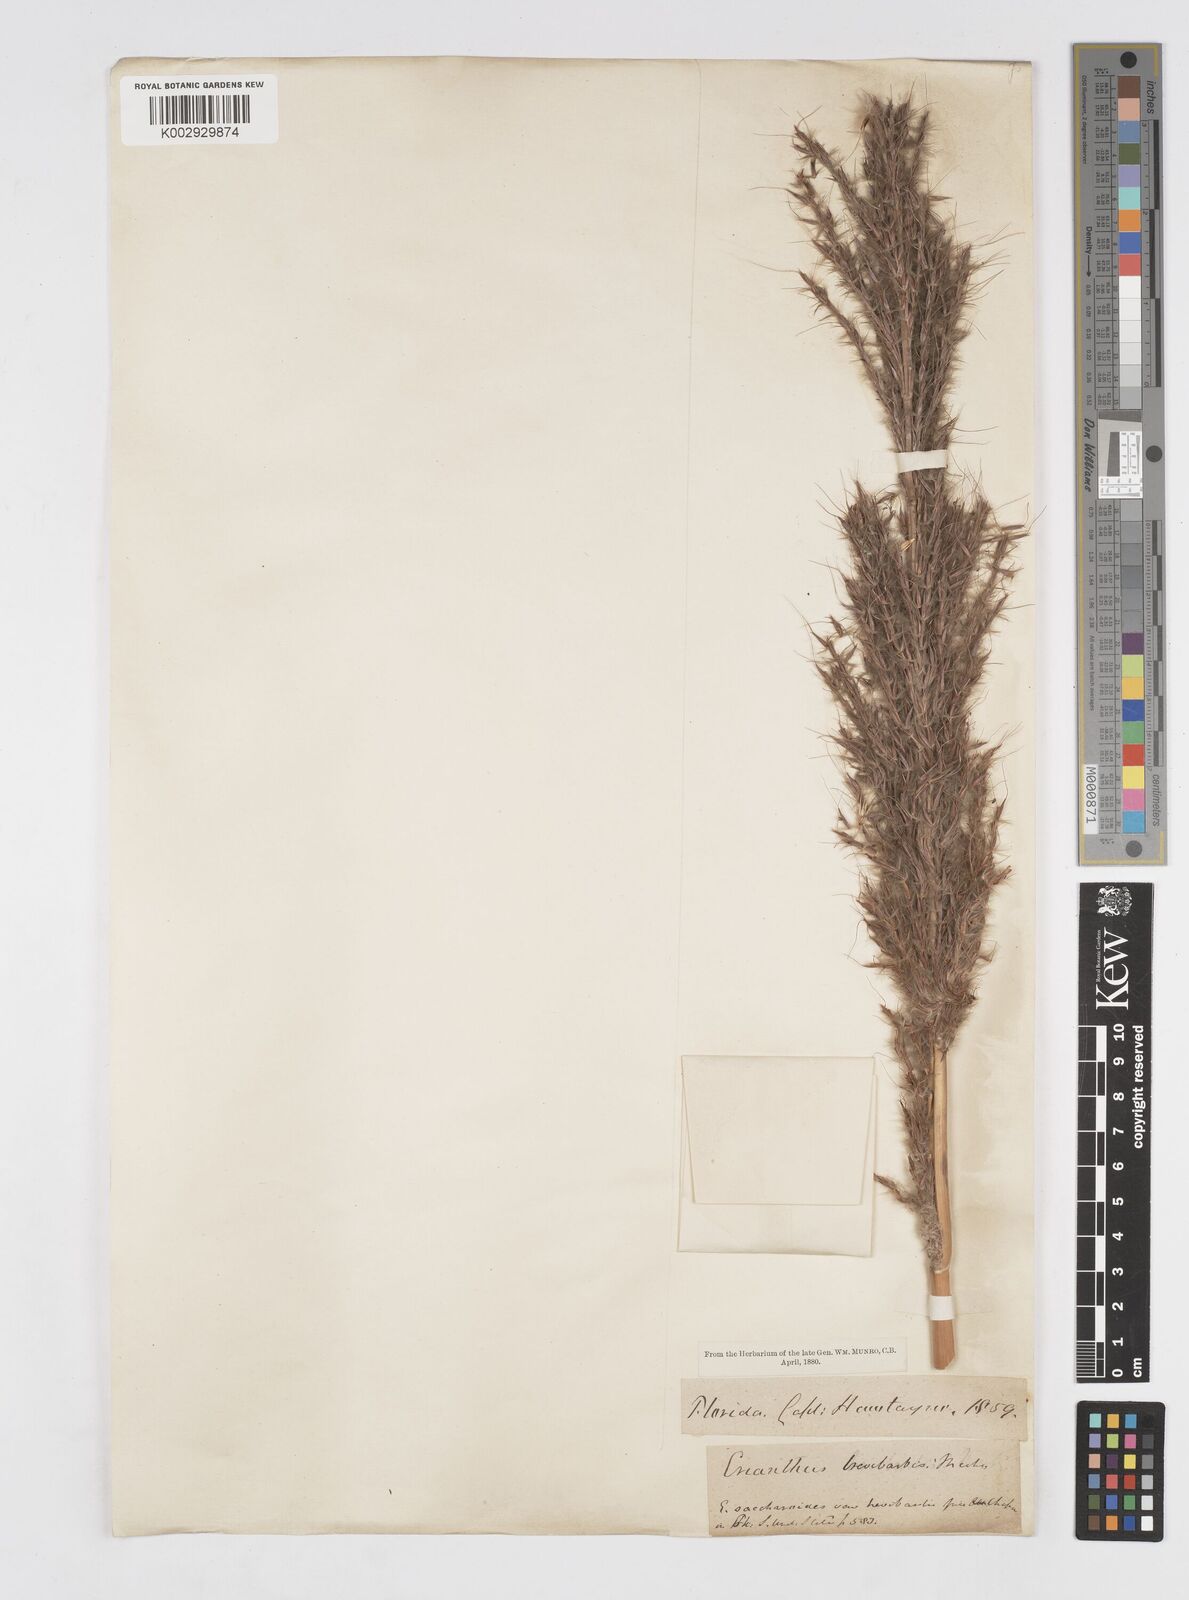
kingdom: Plantae
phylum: Tracheophyta
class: Liliopsida
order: Poales
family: Poaceae
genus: Erianthus
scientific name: Erianthus contortus
